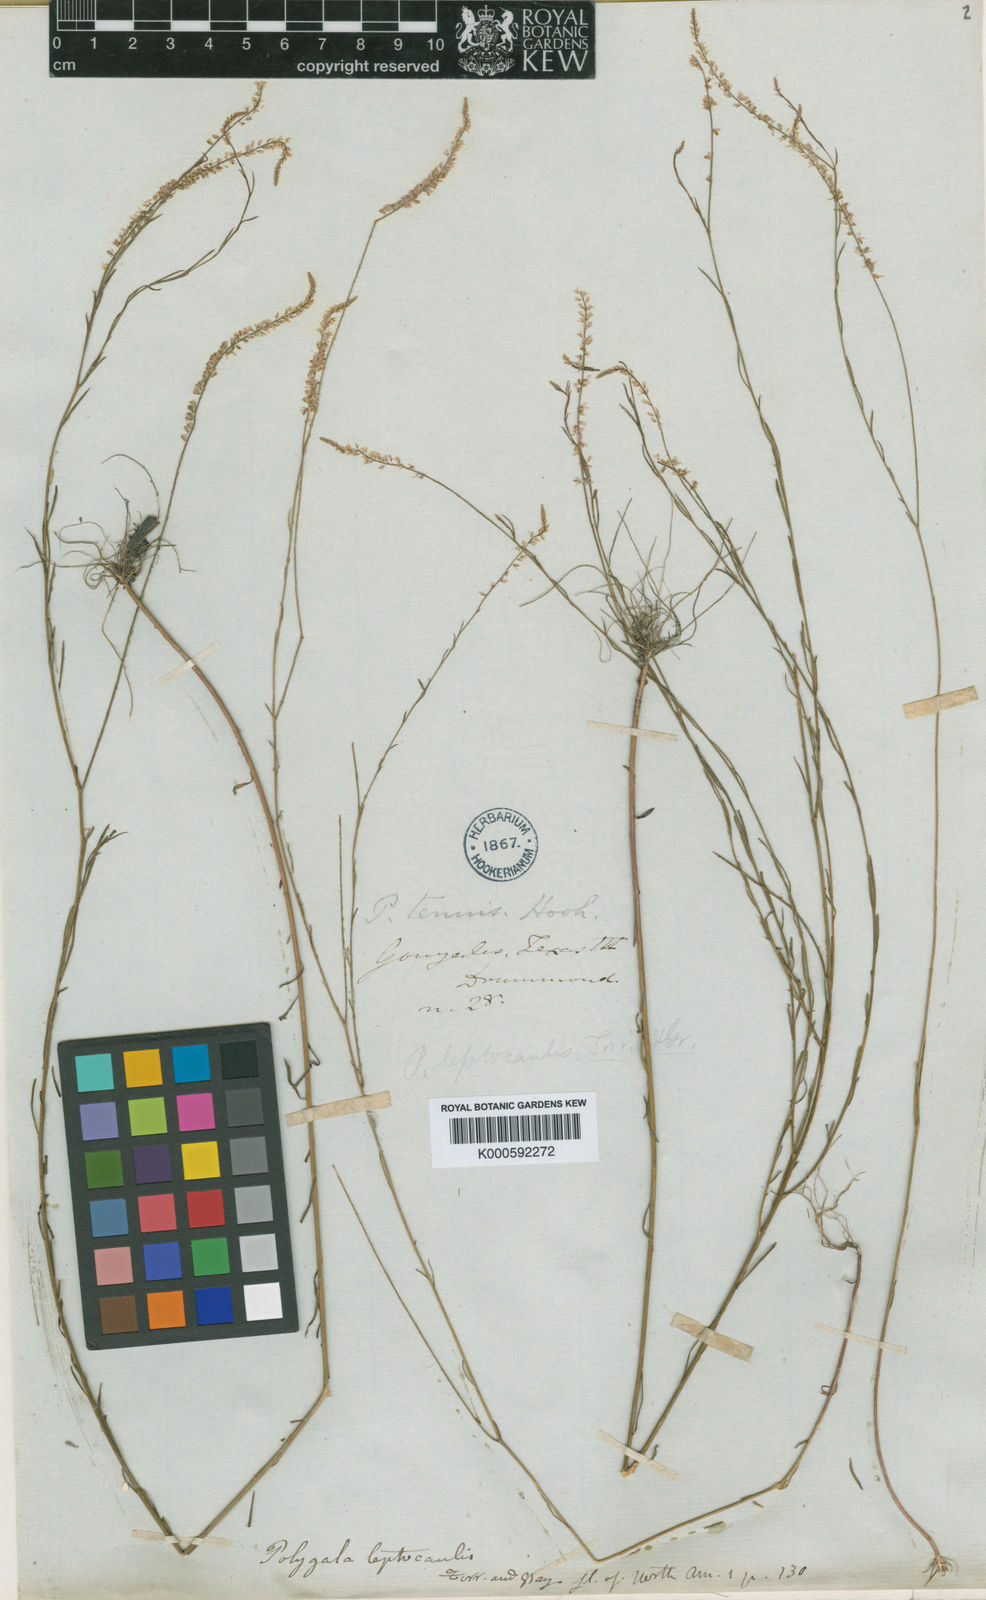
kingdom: Plantae
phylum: Tracheophyta
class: Magnoliopsida
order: Fabales
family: Polygalaceae
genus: Polygala
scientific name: Polygala tenella
